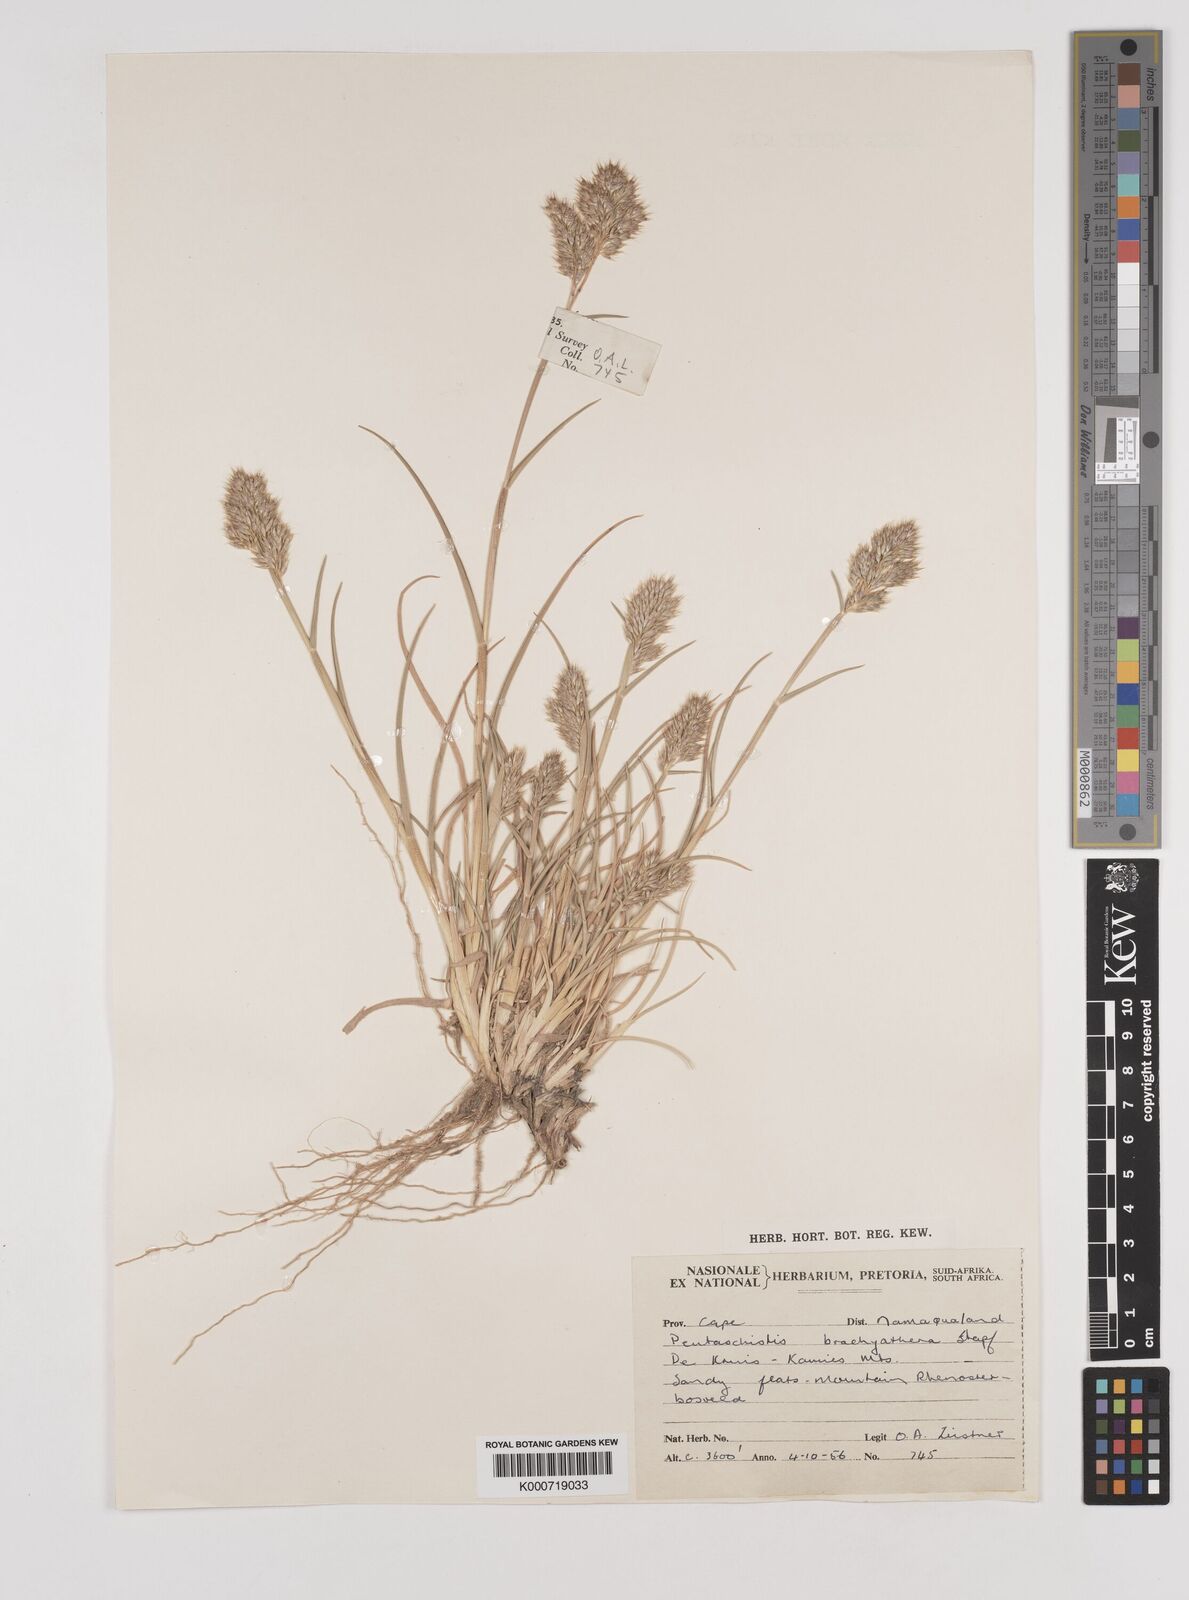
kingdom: Plantae
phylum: Tracheophyta
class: Liliopsida
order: Poales
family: Poaceae
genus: Pentameris
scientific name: Pentameris pallida
